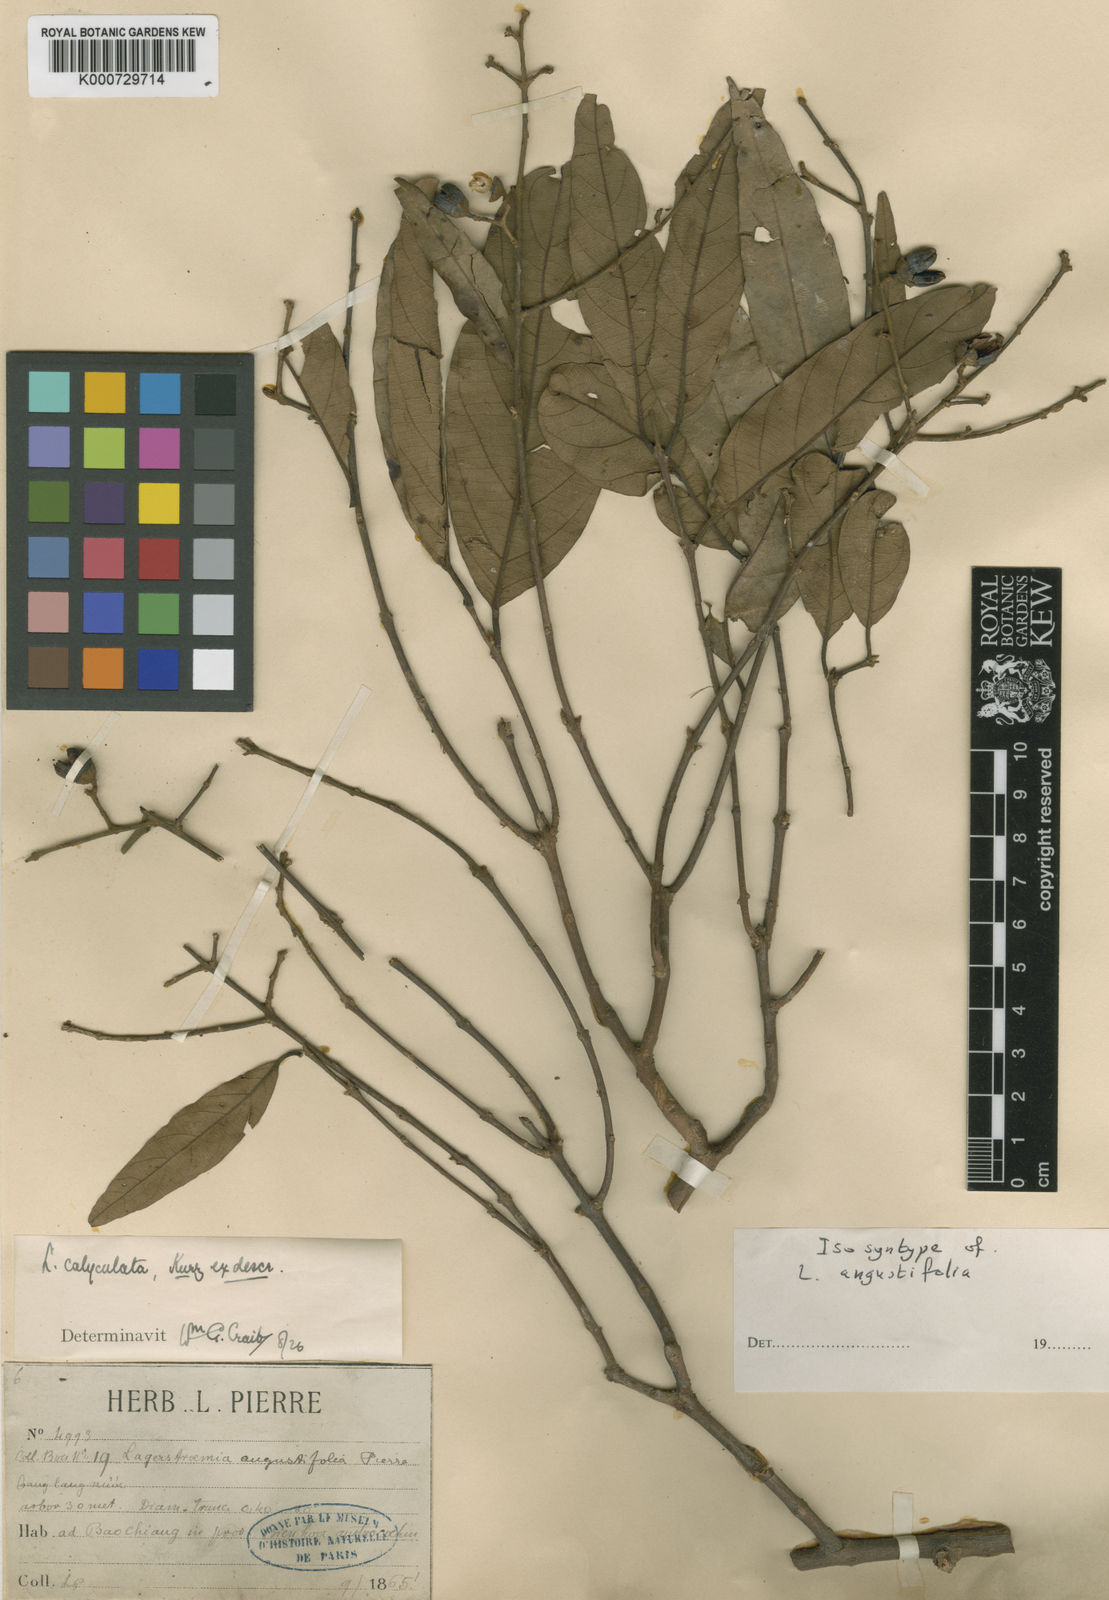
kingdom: Plantae
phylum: Tracheophyta
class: Magnoliopsida
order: Myrtales
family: Lythraceae
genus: Lagerstroemia
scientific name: Lagerstroemia calyculata
